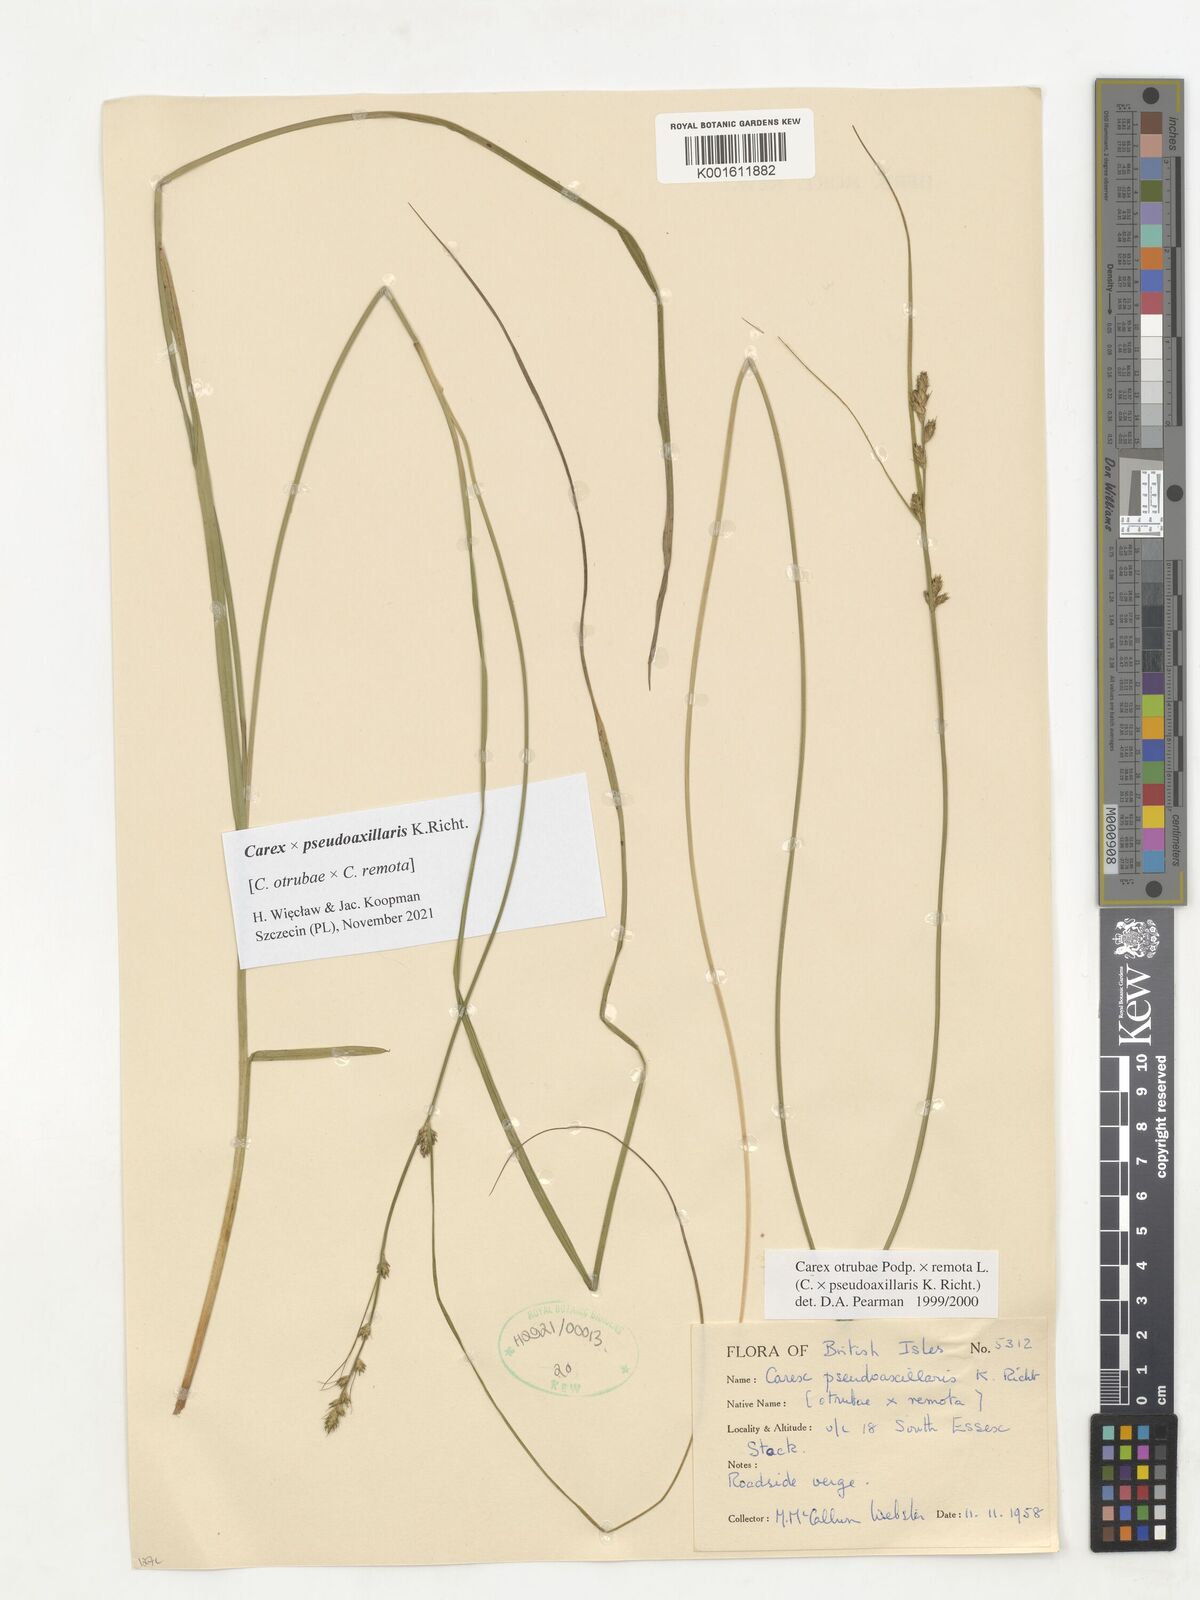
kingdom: Plantae
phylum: Tracheophyta
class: Liliopsida
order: Poales
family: Cyperaceae
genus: Carex
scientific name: Carex pseudoaxillaris
